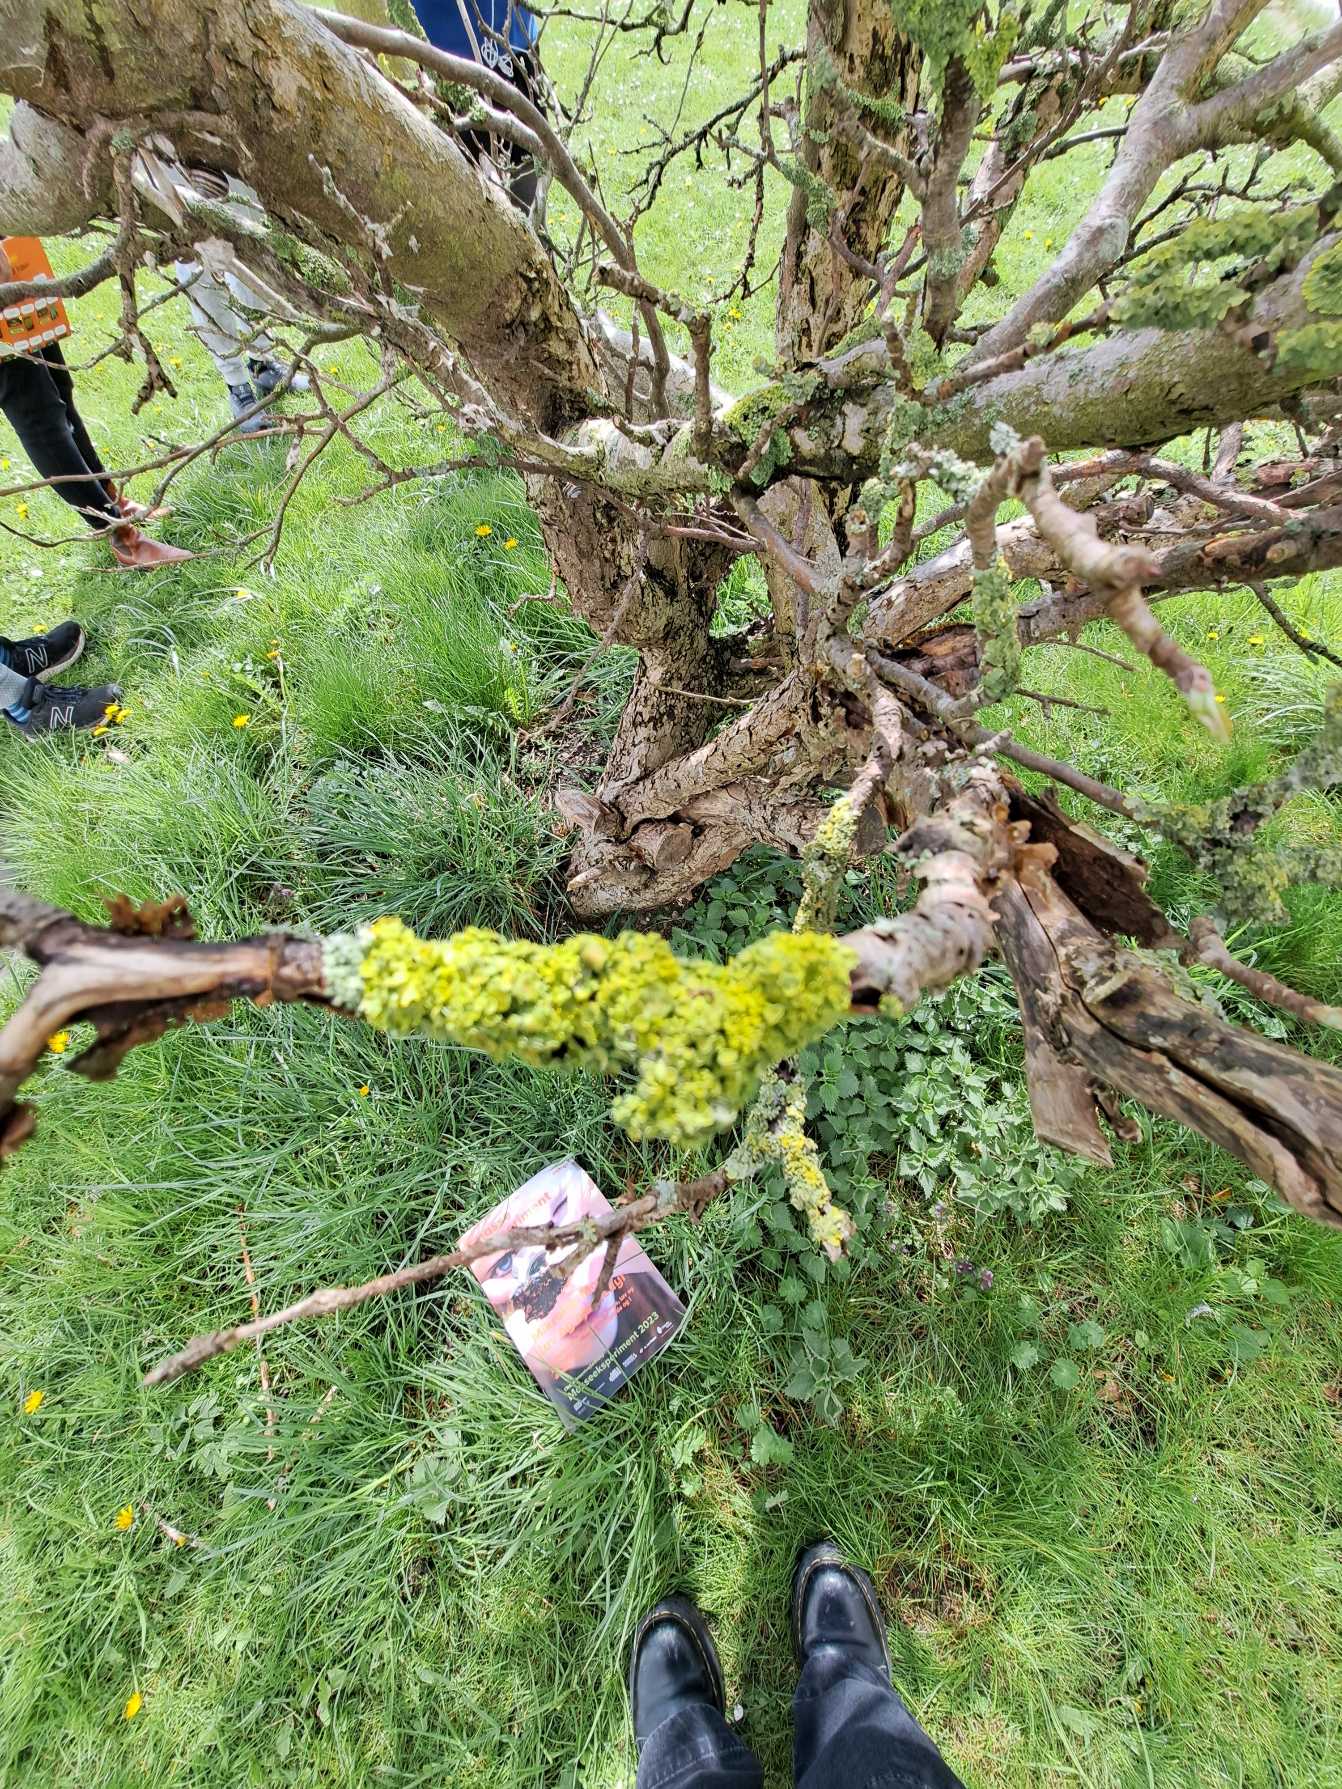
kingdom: Fungi
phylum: Ascomycota
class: Lecanoromycetes
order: Teloschistales
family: Teloschistaceae
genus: Xanthoria
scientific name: Xanthoria parietina
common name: Almindelig væggelav
